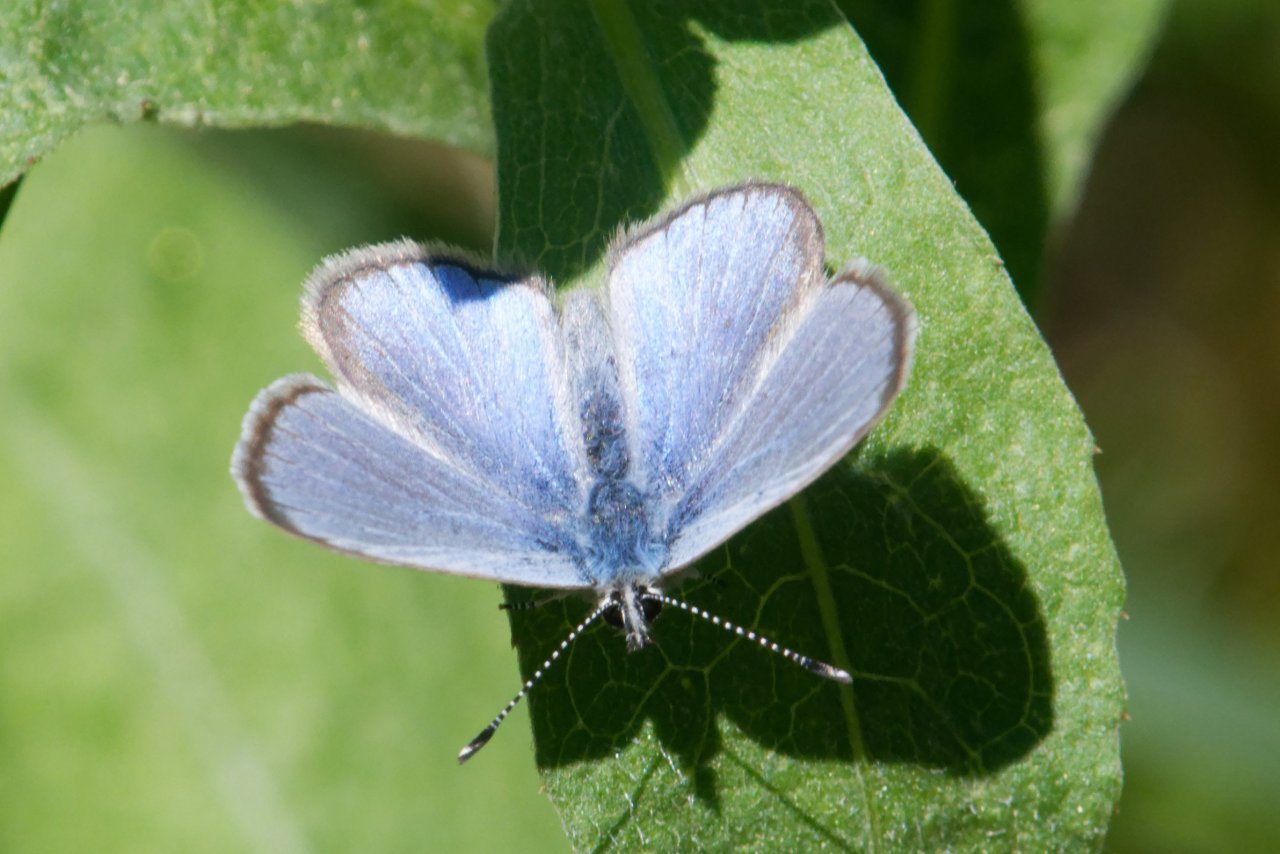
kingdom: Animalia
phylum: Arthropoda
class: Insecta
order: Lepidoptera
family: Lycaenidae
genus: Glaucopsyche
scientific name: Glaucopsyche lygdamus
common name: Silvery Blue
